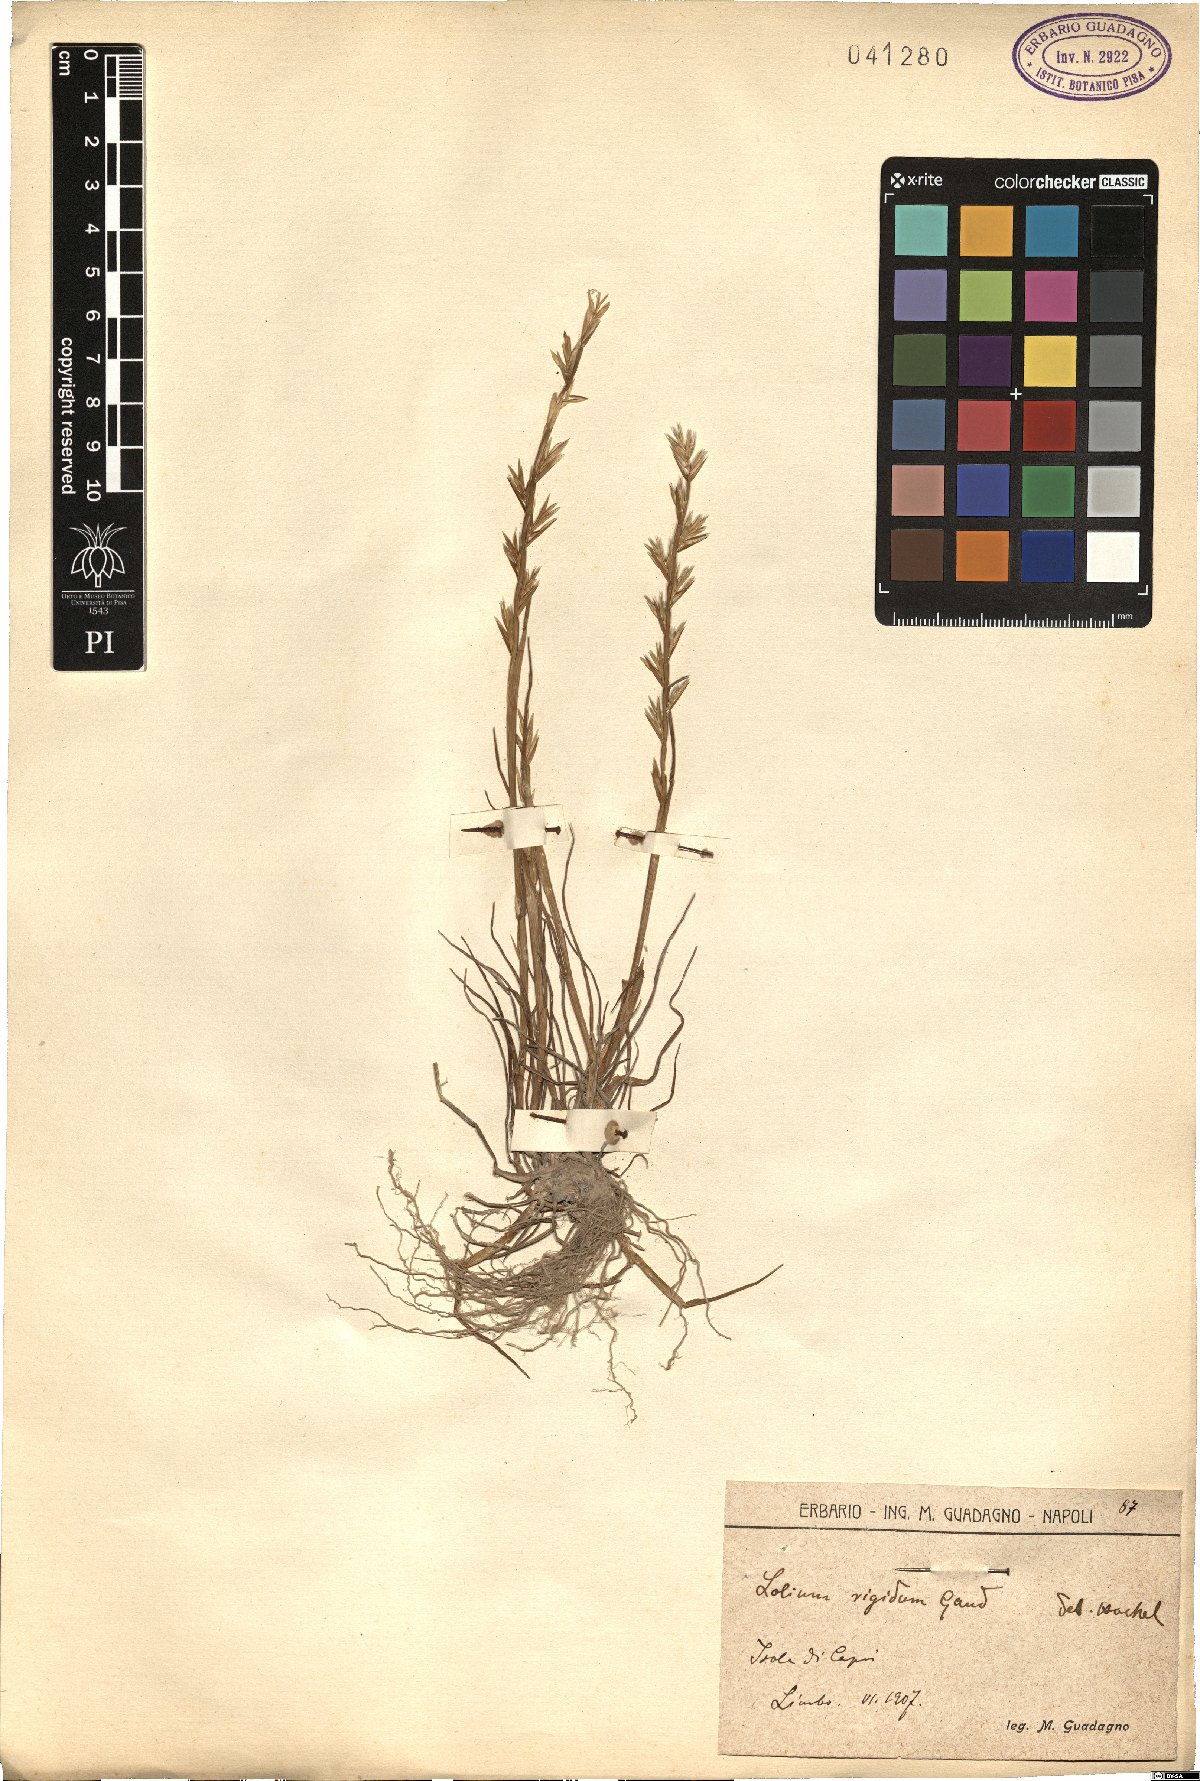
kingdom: Plantae
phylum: Tracheophyta
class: Liliopsida
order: Poales
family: Poaceae
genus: Lolium
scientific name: Lolium rigidum
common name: Wimmera ryegrass
